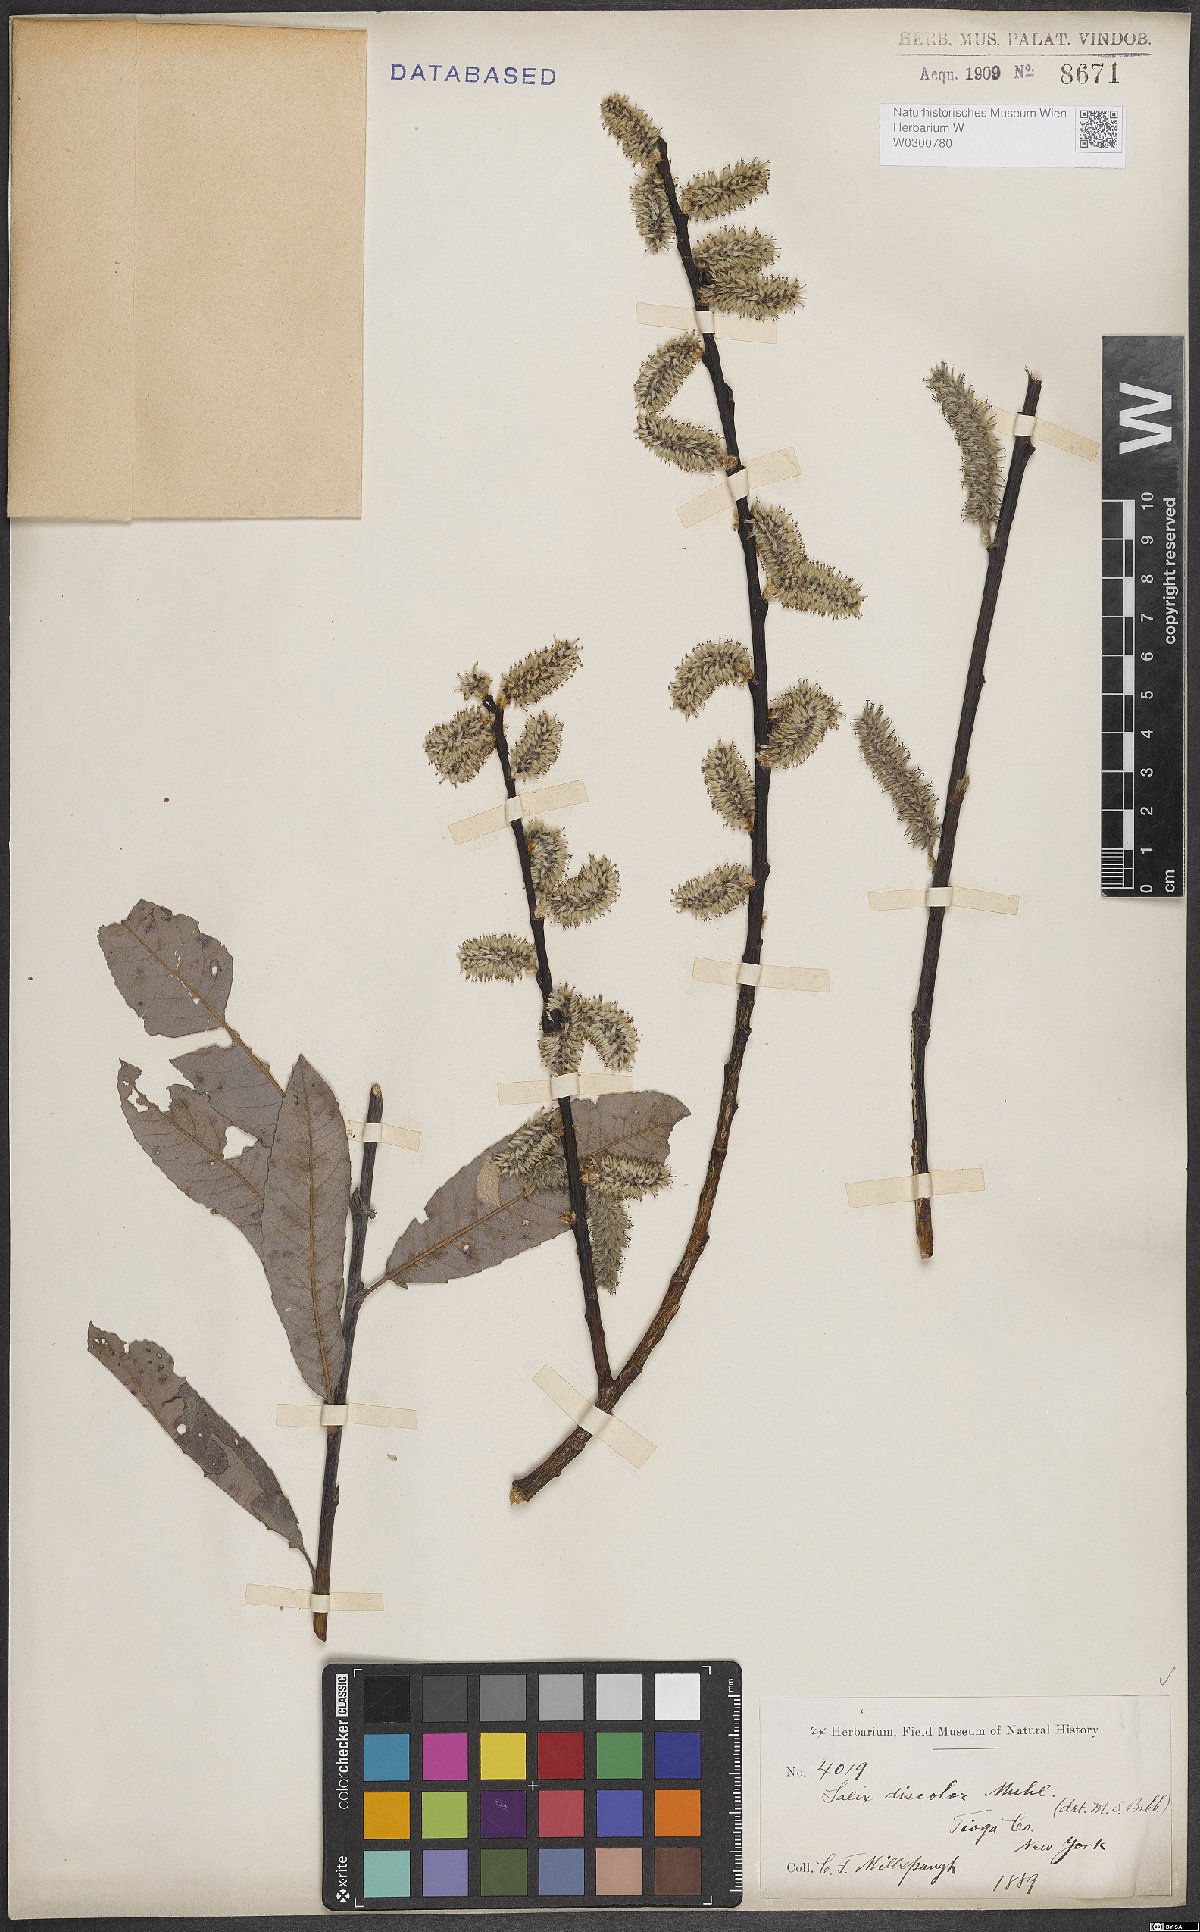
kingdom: Plantae
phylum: Tracheophyta
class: Magnoliopsida
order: Malpighiales
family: Salicaceae
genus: Salix
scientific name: Salix discolor
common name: Glaucous willow
